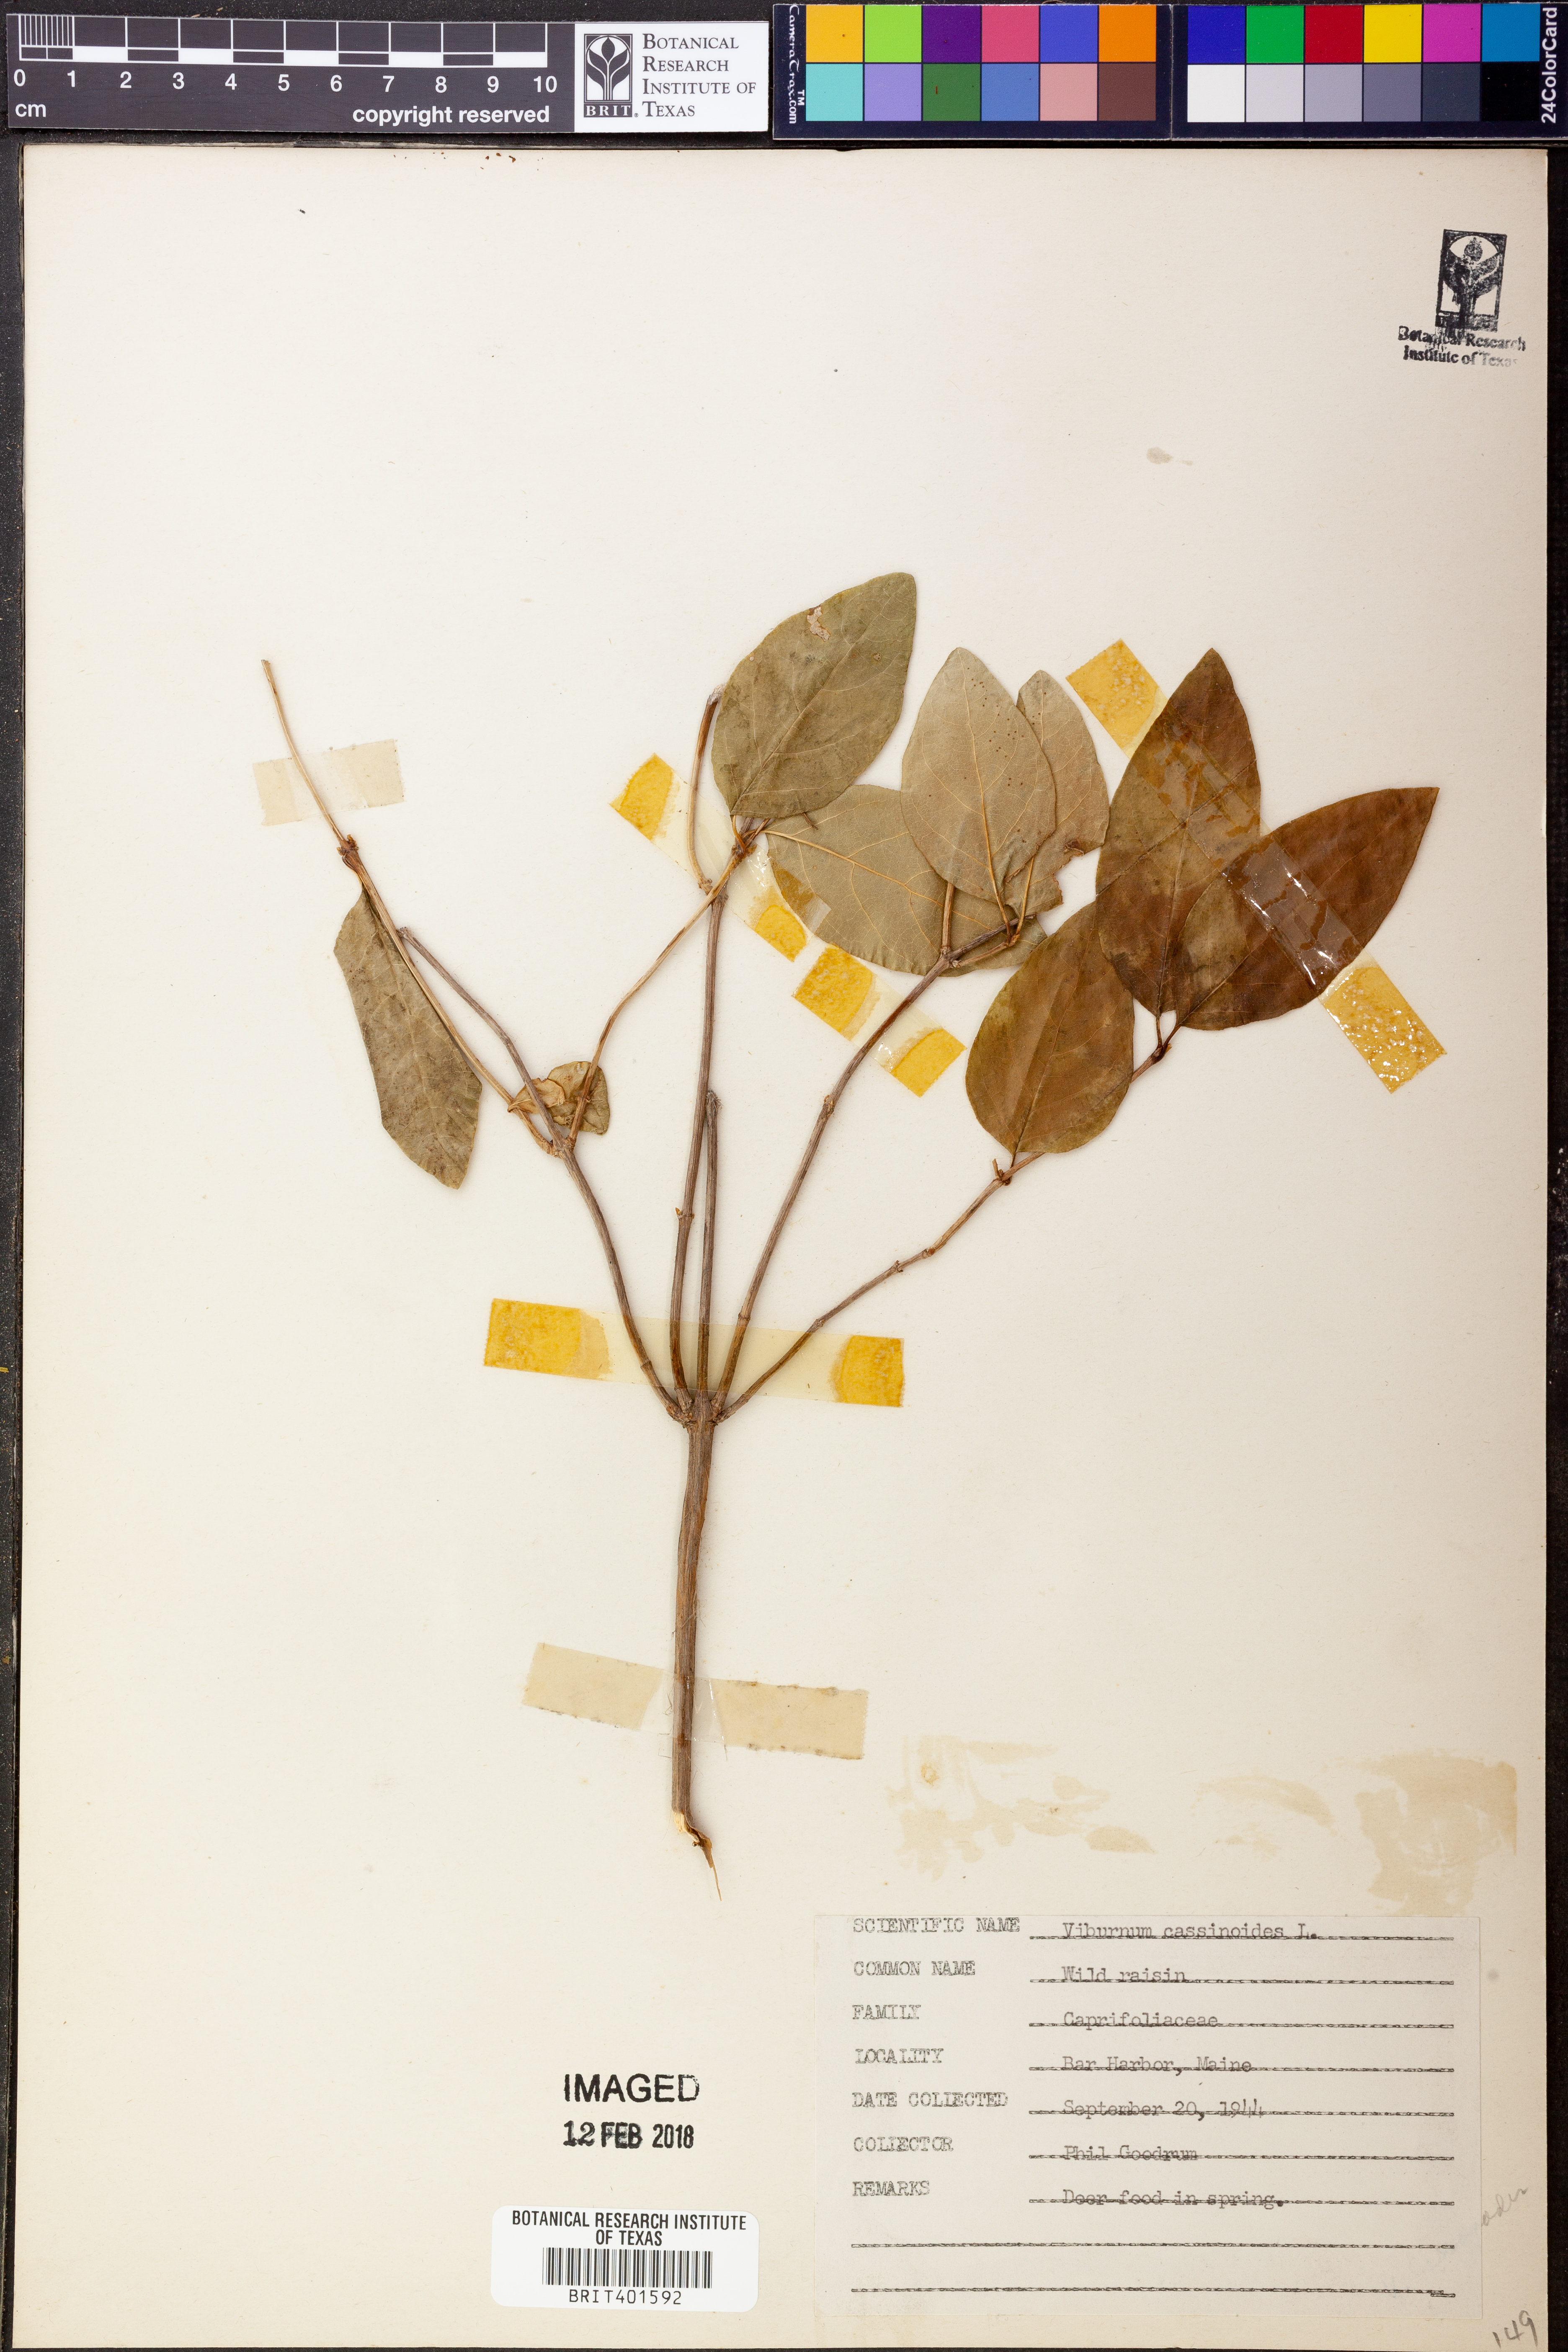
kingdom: Plantae
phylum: Tracheophyta
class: Magnoliopsida
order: Dipsacales
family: Viburnaceae
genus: Viburnum
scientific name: Viburnum cassinoides
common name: Swamp haw
